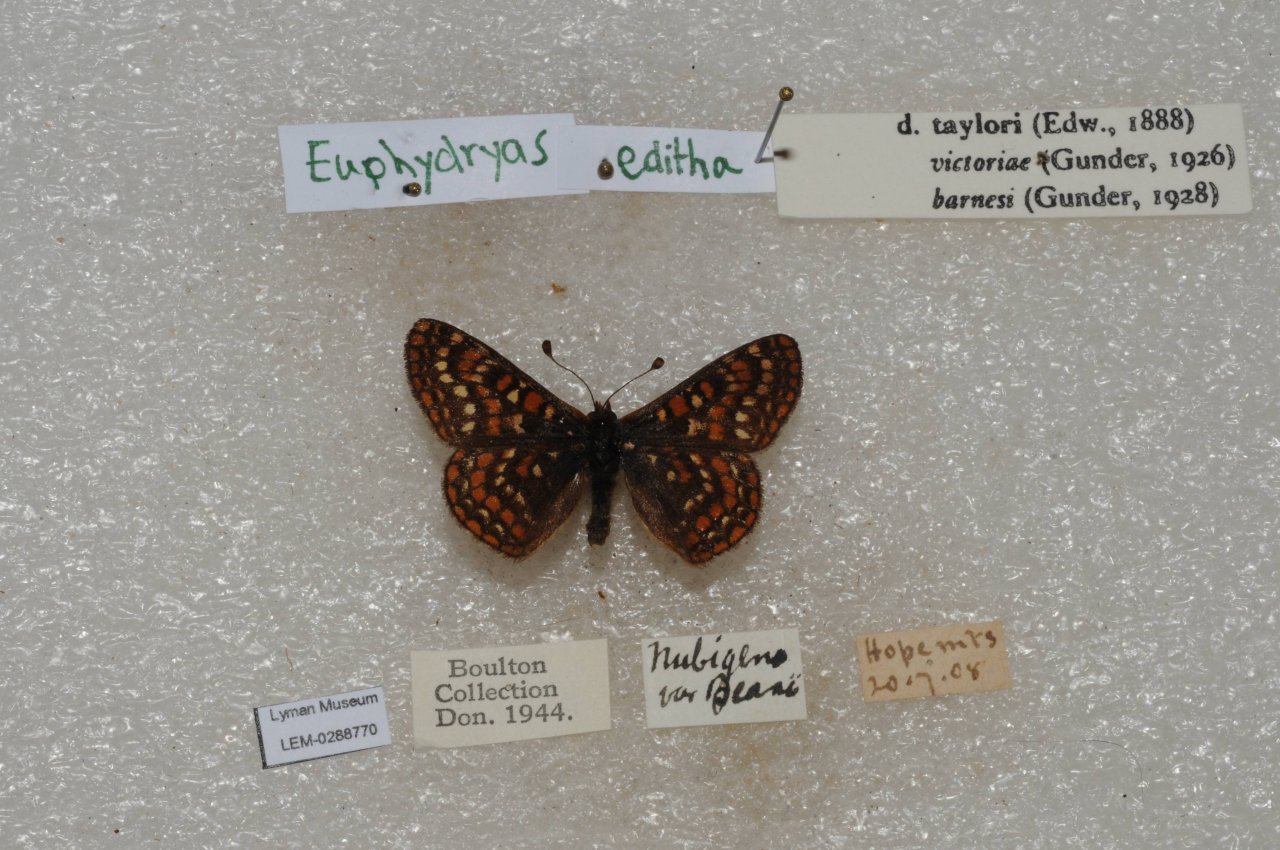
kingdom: Animalia
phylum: Arthropoda
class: Insecta
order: Lepidoptera
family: Nymphalidae
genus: Occidryas
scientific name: Occidryas editha
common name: Edith's Checkerspot
